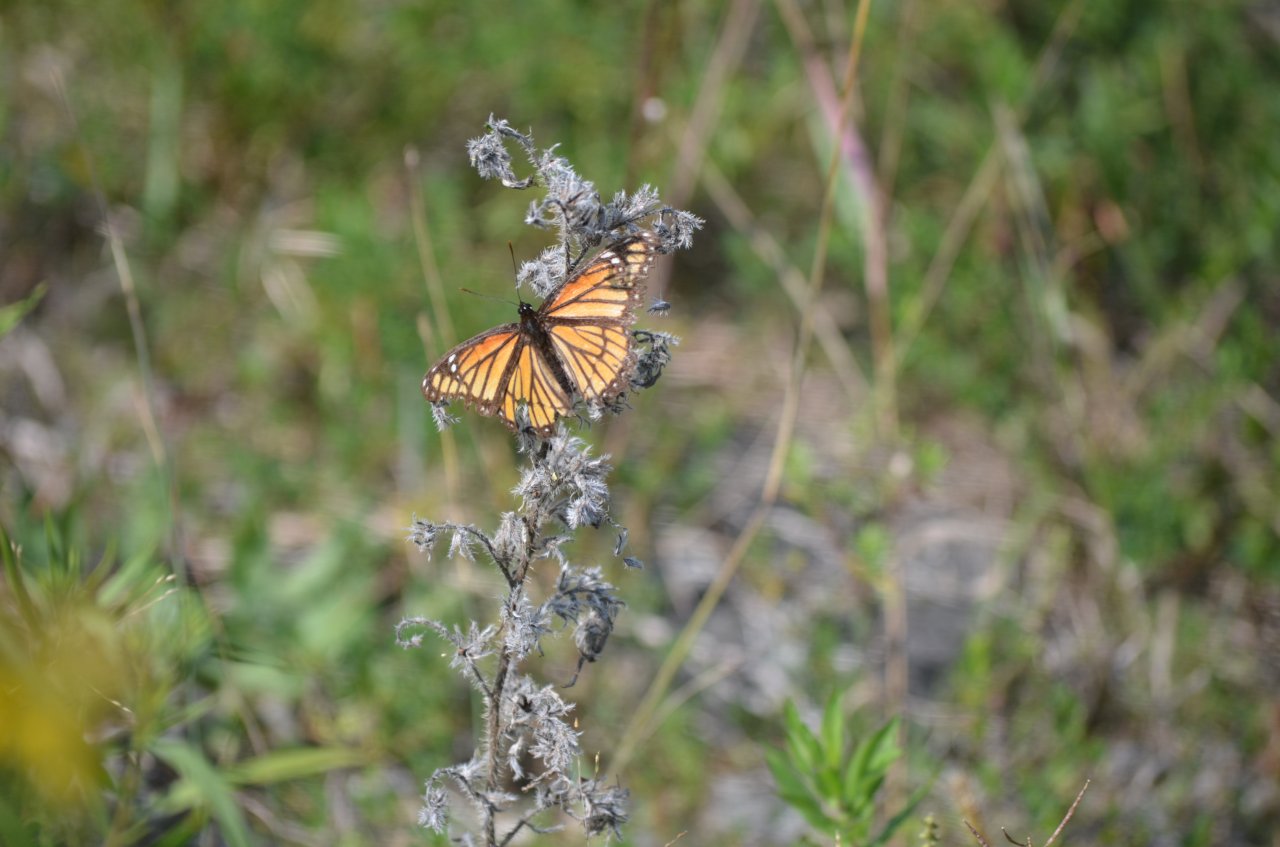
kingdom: Animalia
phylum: Arthropoda
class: Insecta
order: Lepidoptera
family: Nymphalidae
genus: Limenitis
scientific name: Limenitis archippus
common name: Viceroy
